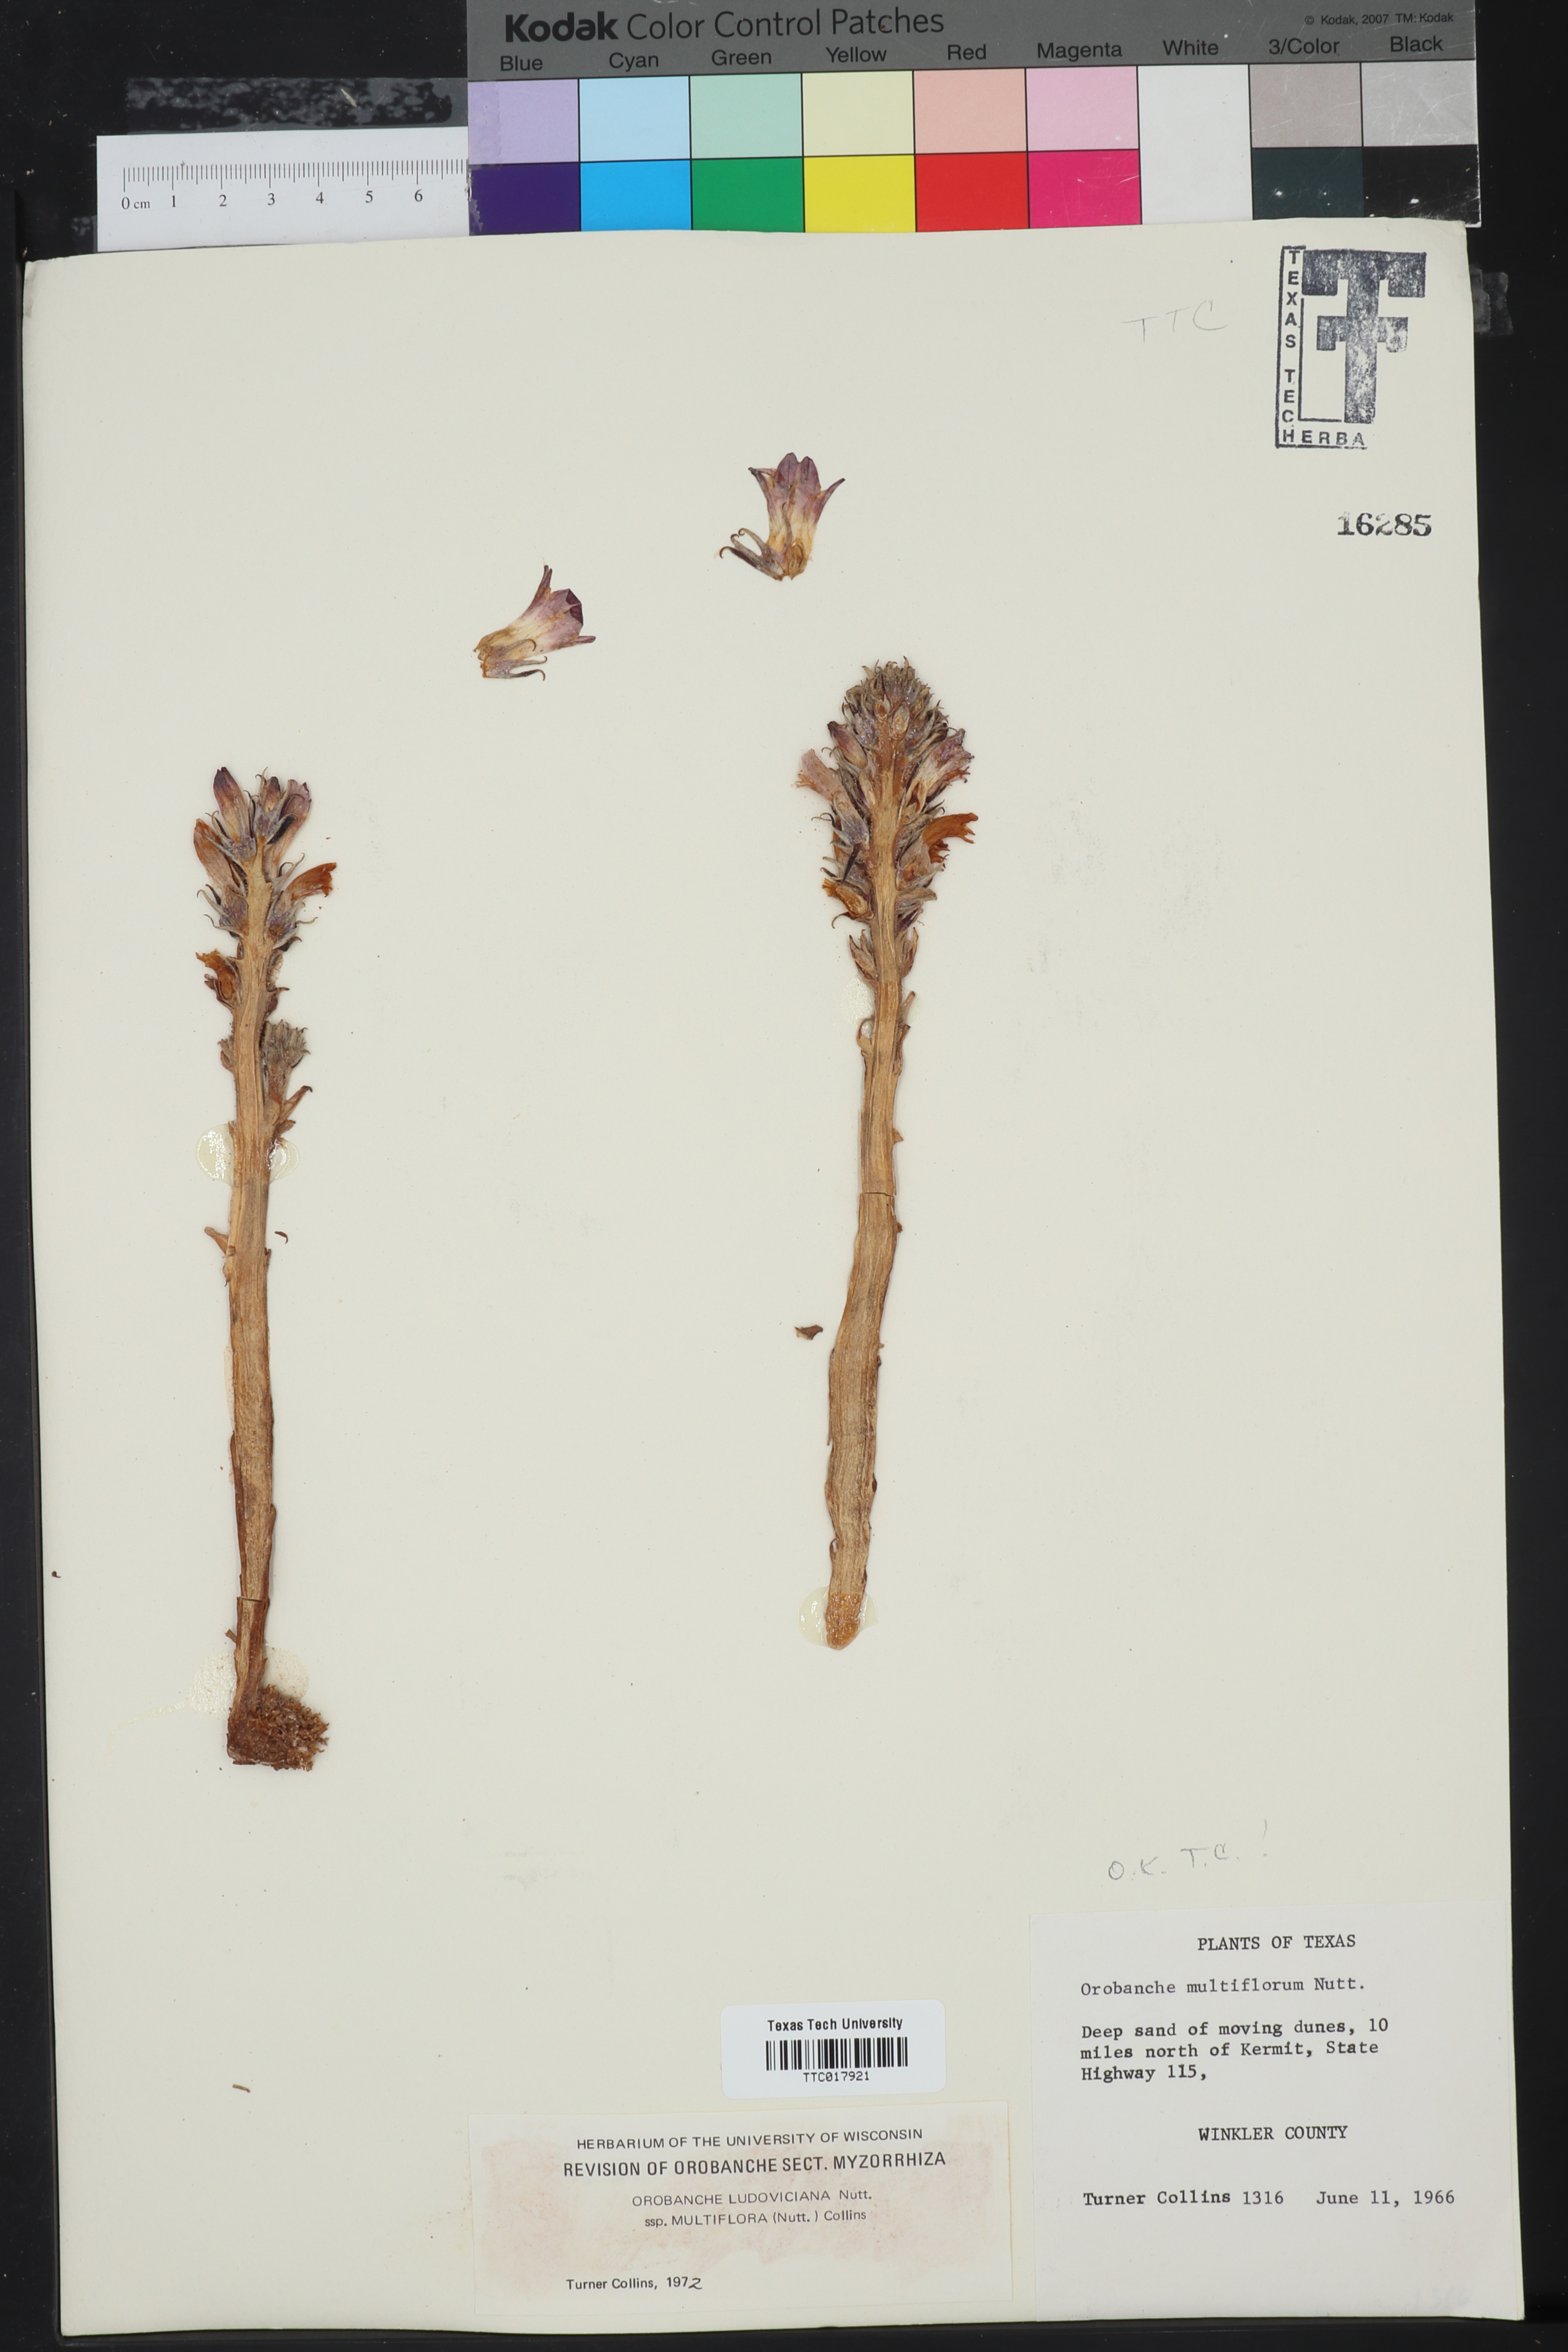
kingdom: Plantae
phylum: Tracheophyta
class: Magnoliopsida
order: Lamiales
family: Orobanchaceae
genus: Aphyllon
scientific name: Aphyllon multiflorum
